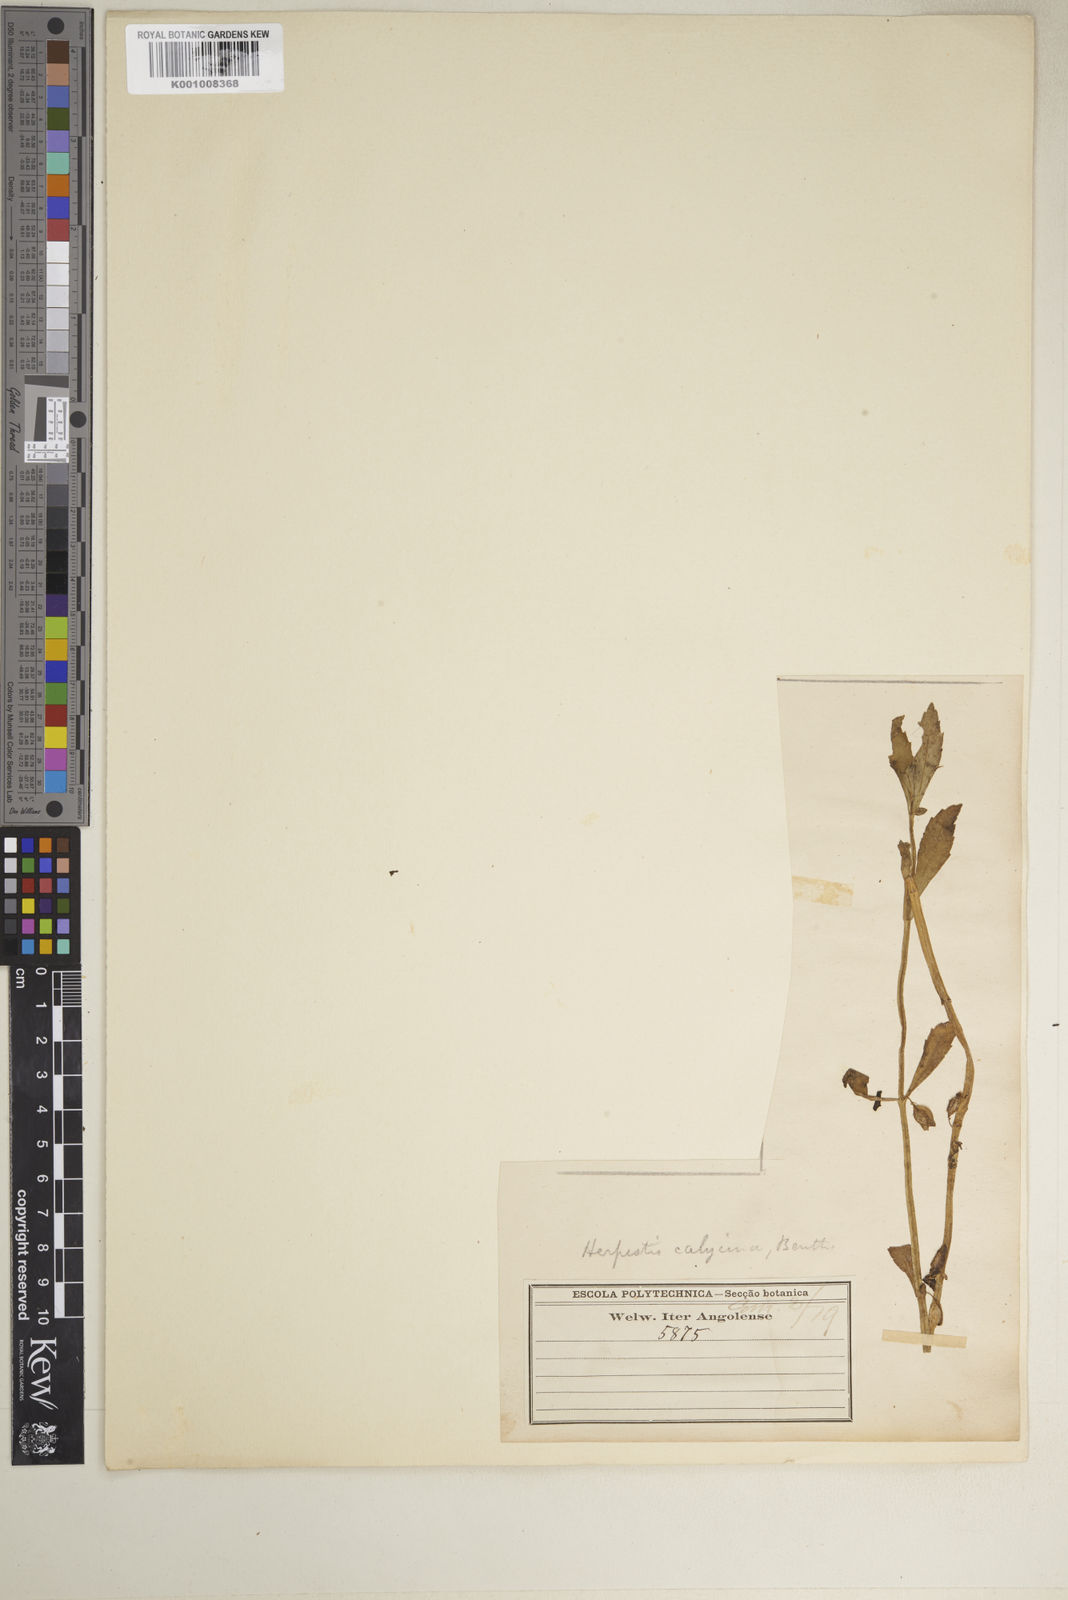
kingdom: Plantae
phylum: Tracheophyta
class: Magnoliopsida
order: Lamiales
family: Plantaginaceae
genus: Bacopa
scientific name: Bacopa crenata
